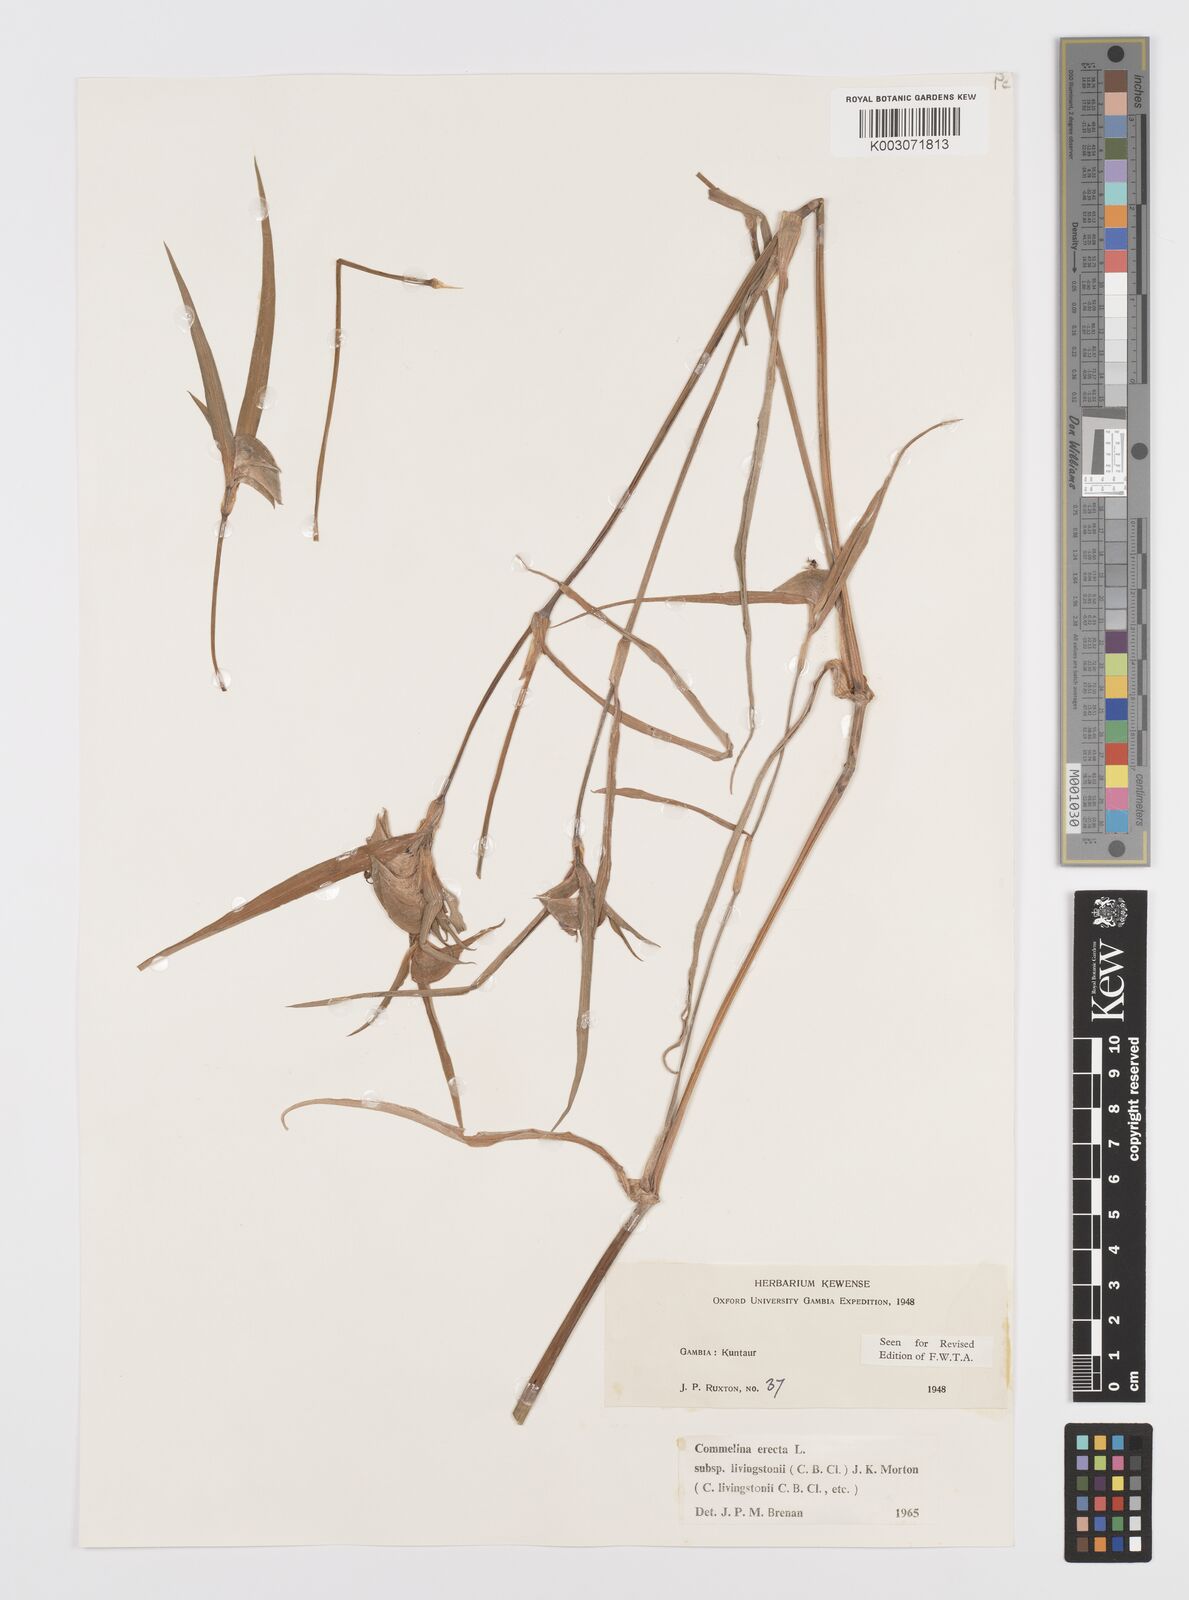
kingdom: Plantae
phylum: Tracheophyta
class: Liliopsida
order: Commelinales
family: Commelinaceae
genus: Commelina
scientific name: Commelina erecta
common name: Blousel blommetjie
